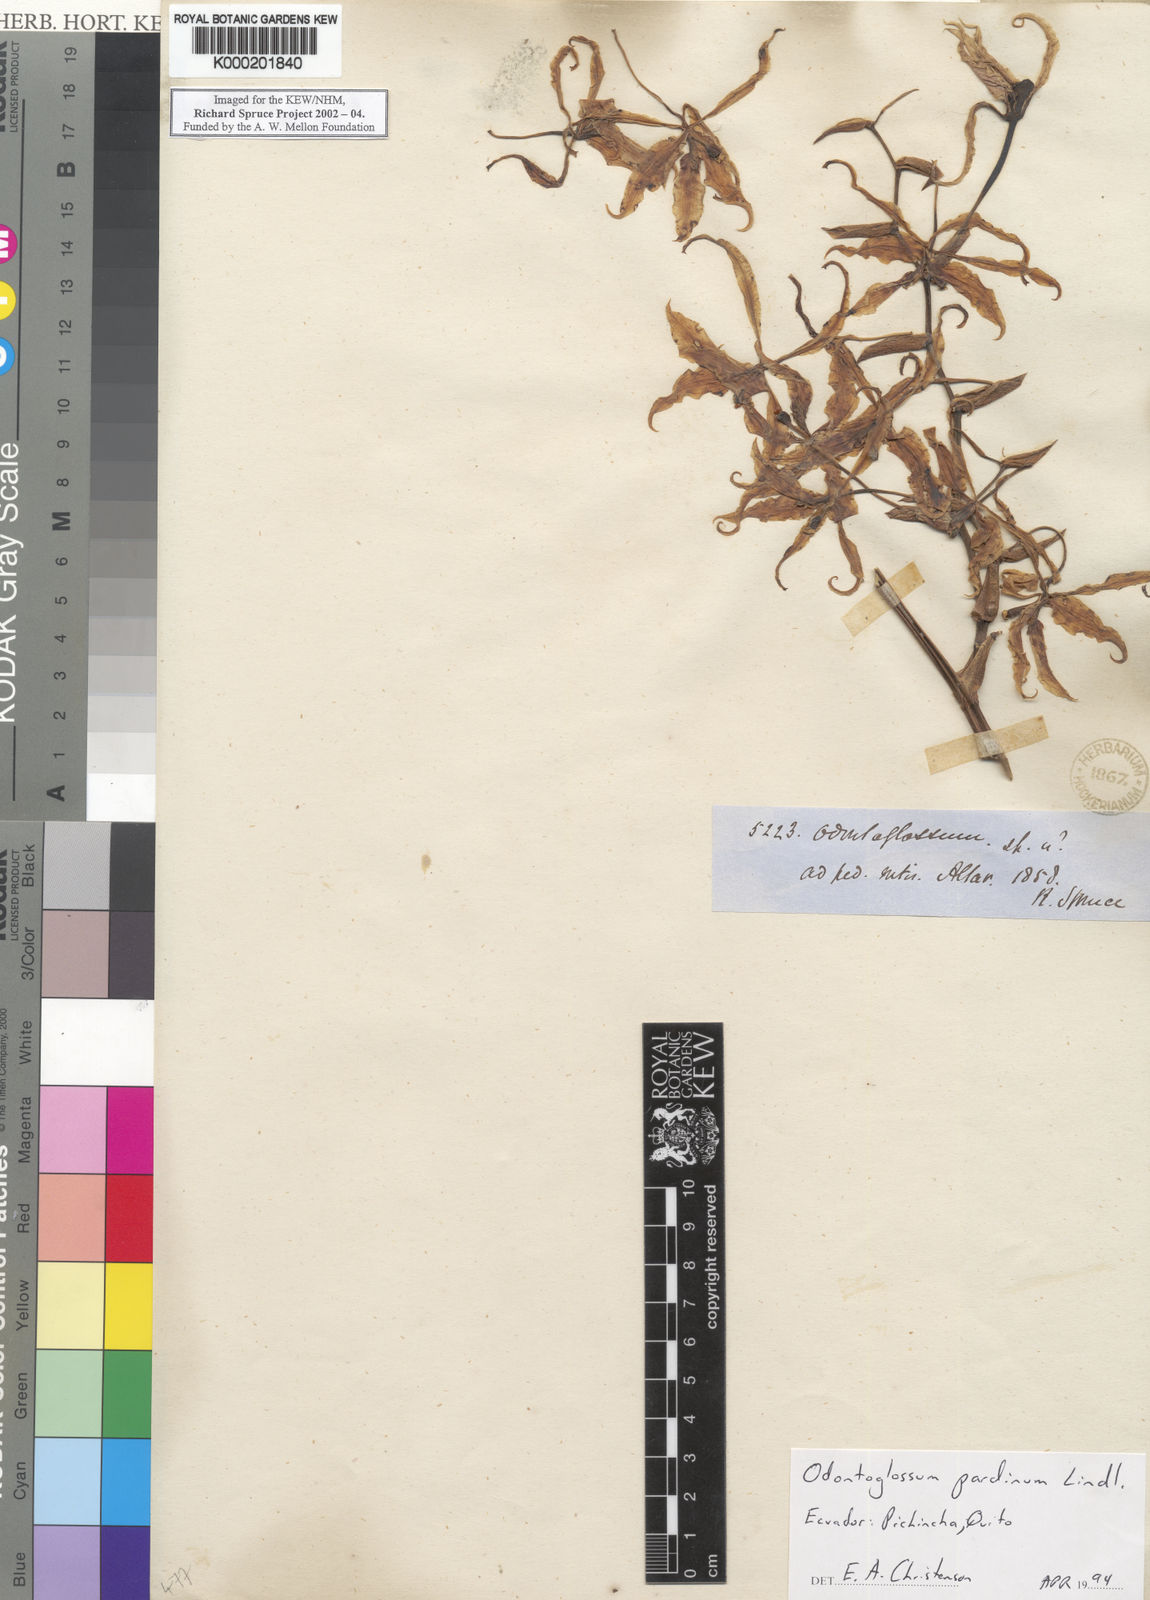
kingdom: Plantae
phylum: Tracheophyta
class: Liliopsida
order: Asparagales
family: Orchidaceae
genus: Cyrtochilum
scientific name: Cyrtochilum pardinum
